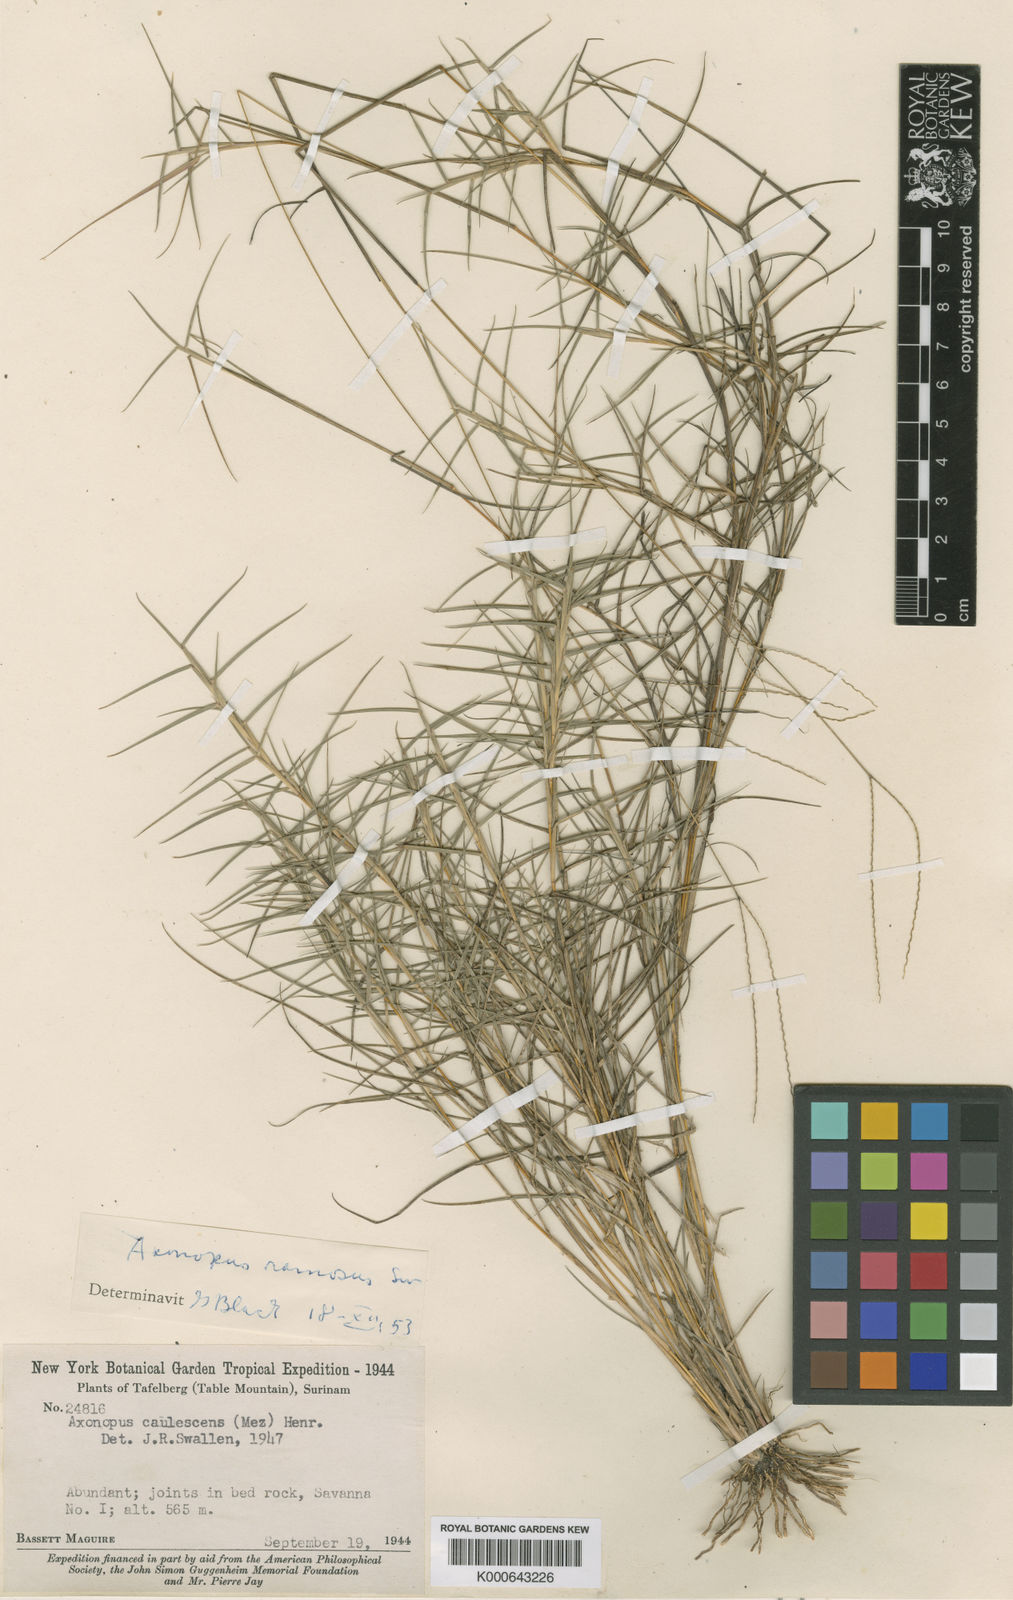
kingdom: Plantae
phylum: Tracheophyta
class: Liliopsida
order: Poales
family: Poaceae
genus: Axonopus
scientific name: Axonopus ramosus
